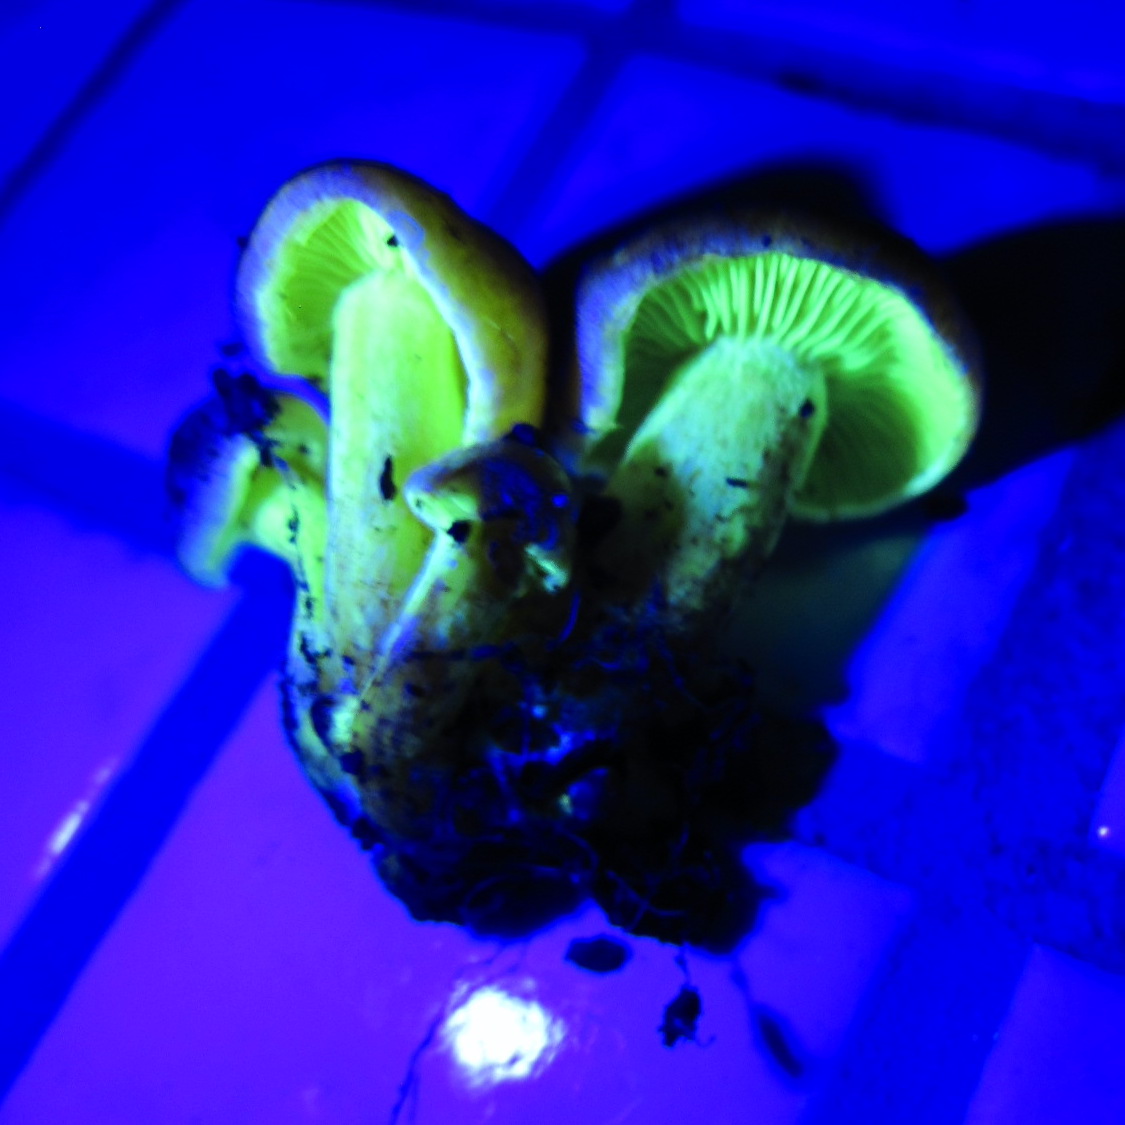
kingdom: Fungi
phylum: Basidiomycota
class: Agaricomycetes
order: Agaricales
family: Strophariaceae
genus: Hypholoma
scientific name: Hypholoma fasciculare
